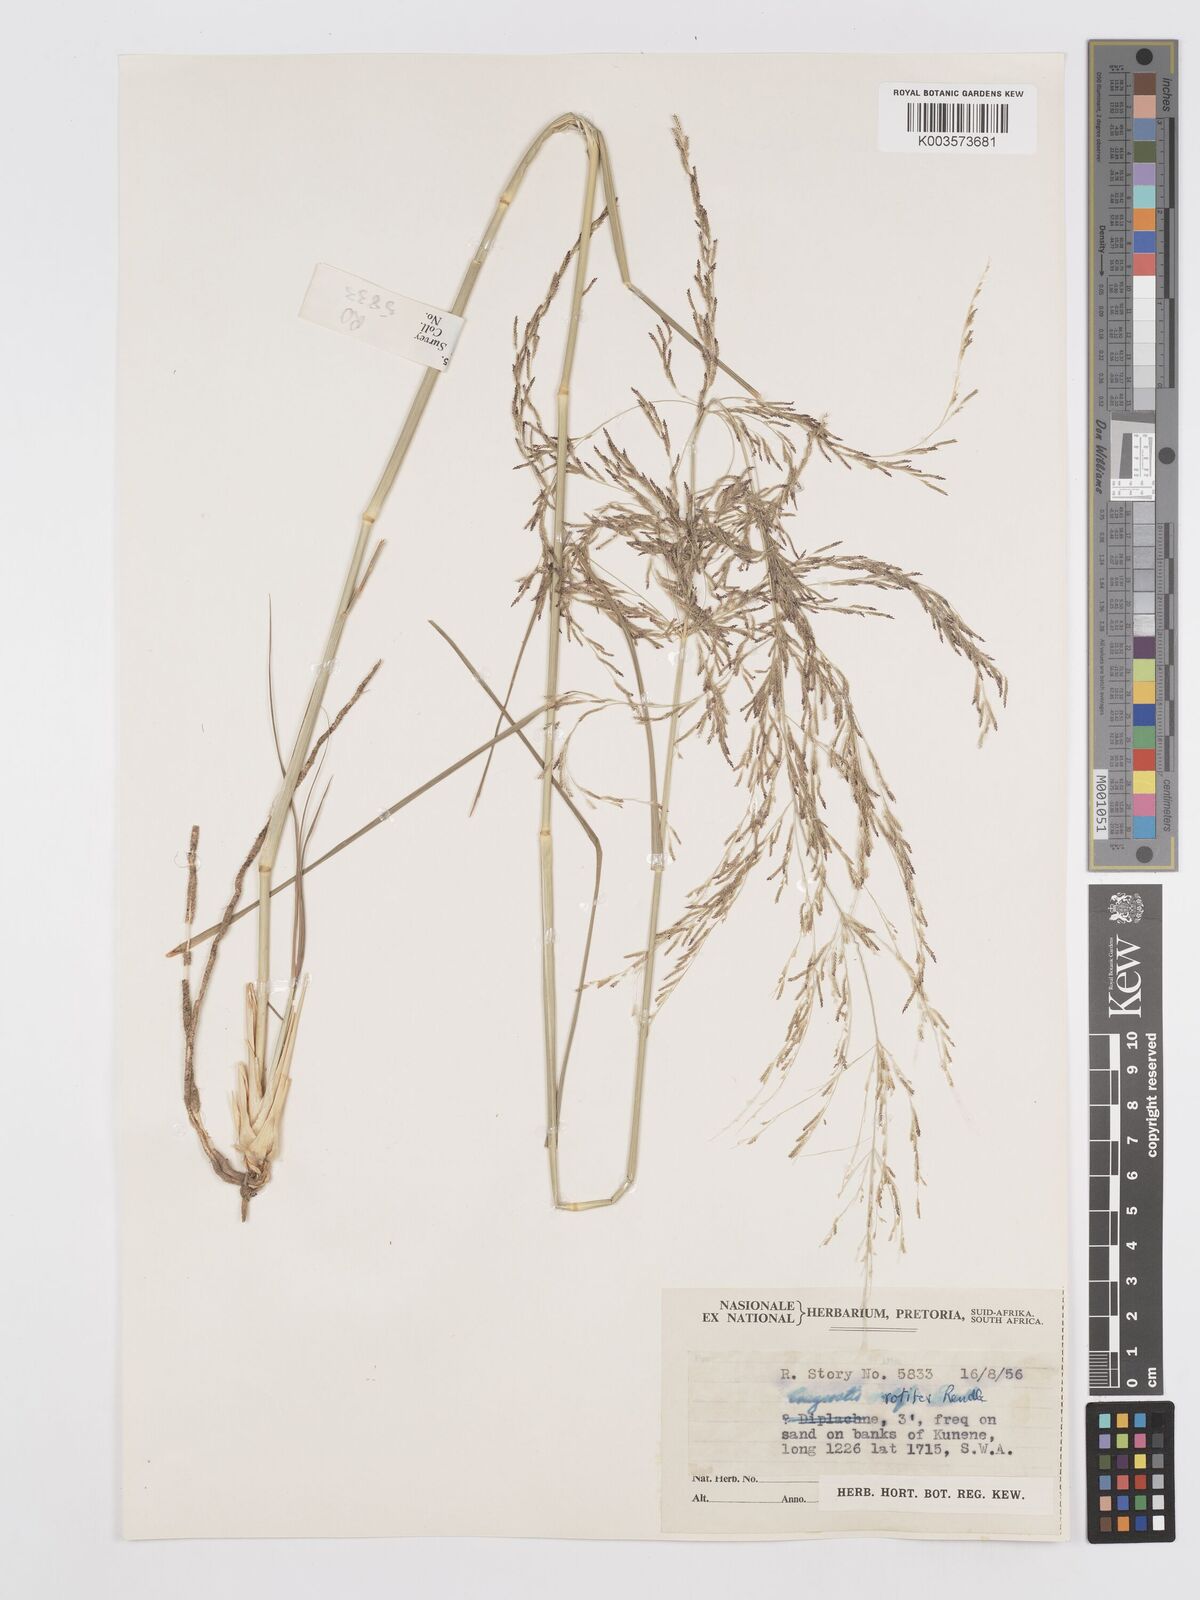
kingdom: Plantae
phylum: Tracheophyta
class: Liliopsida
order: Poales
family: Poaceae
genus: Eragrostis
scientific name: Eragrostis rotifer
